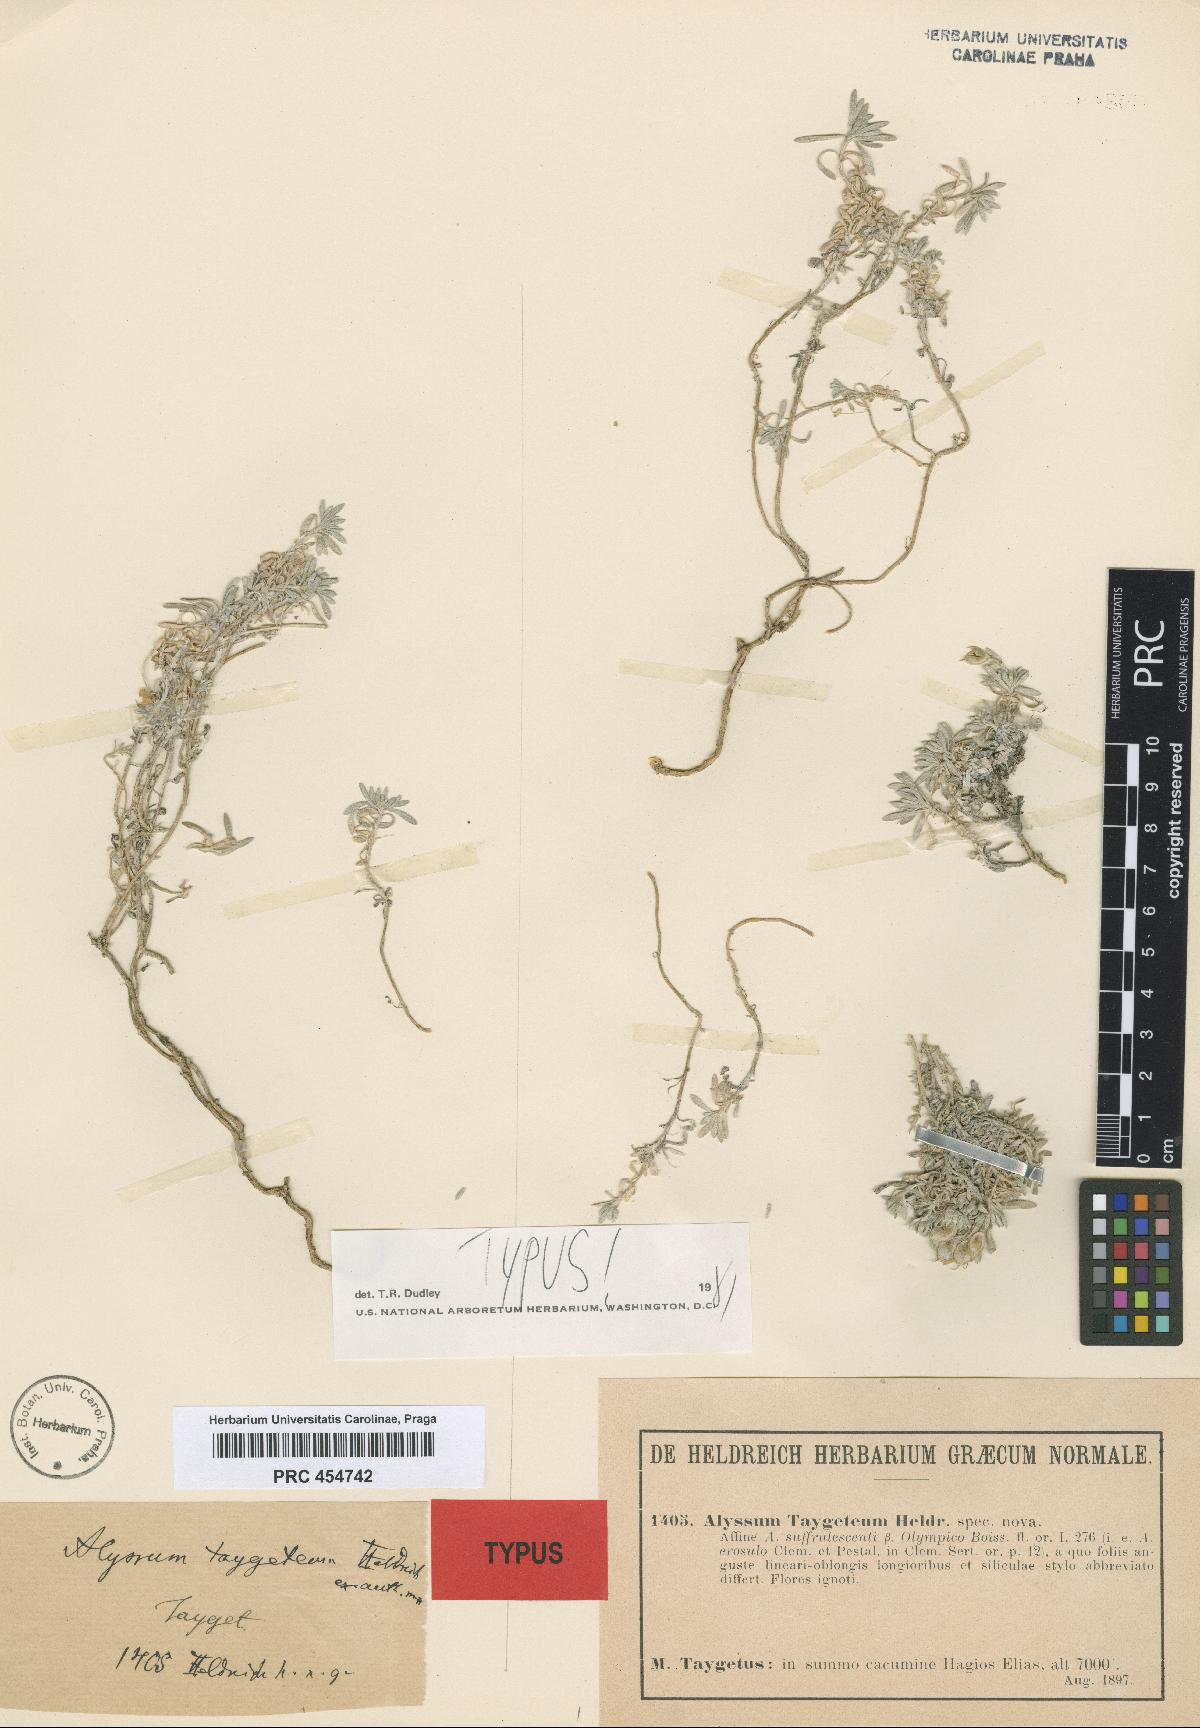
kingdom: Plantae
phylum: Tracheophyta
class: Magnoliopsida
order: Brassicales
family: Brassicaceae
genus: Alyssum
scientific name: Alyssum taygeteum
